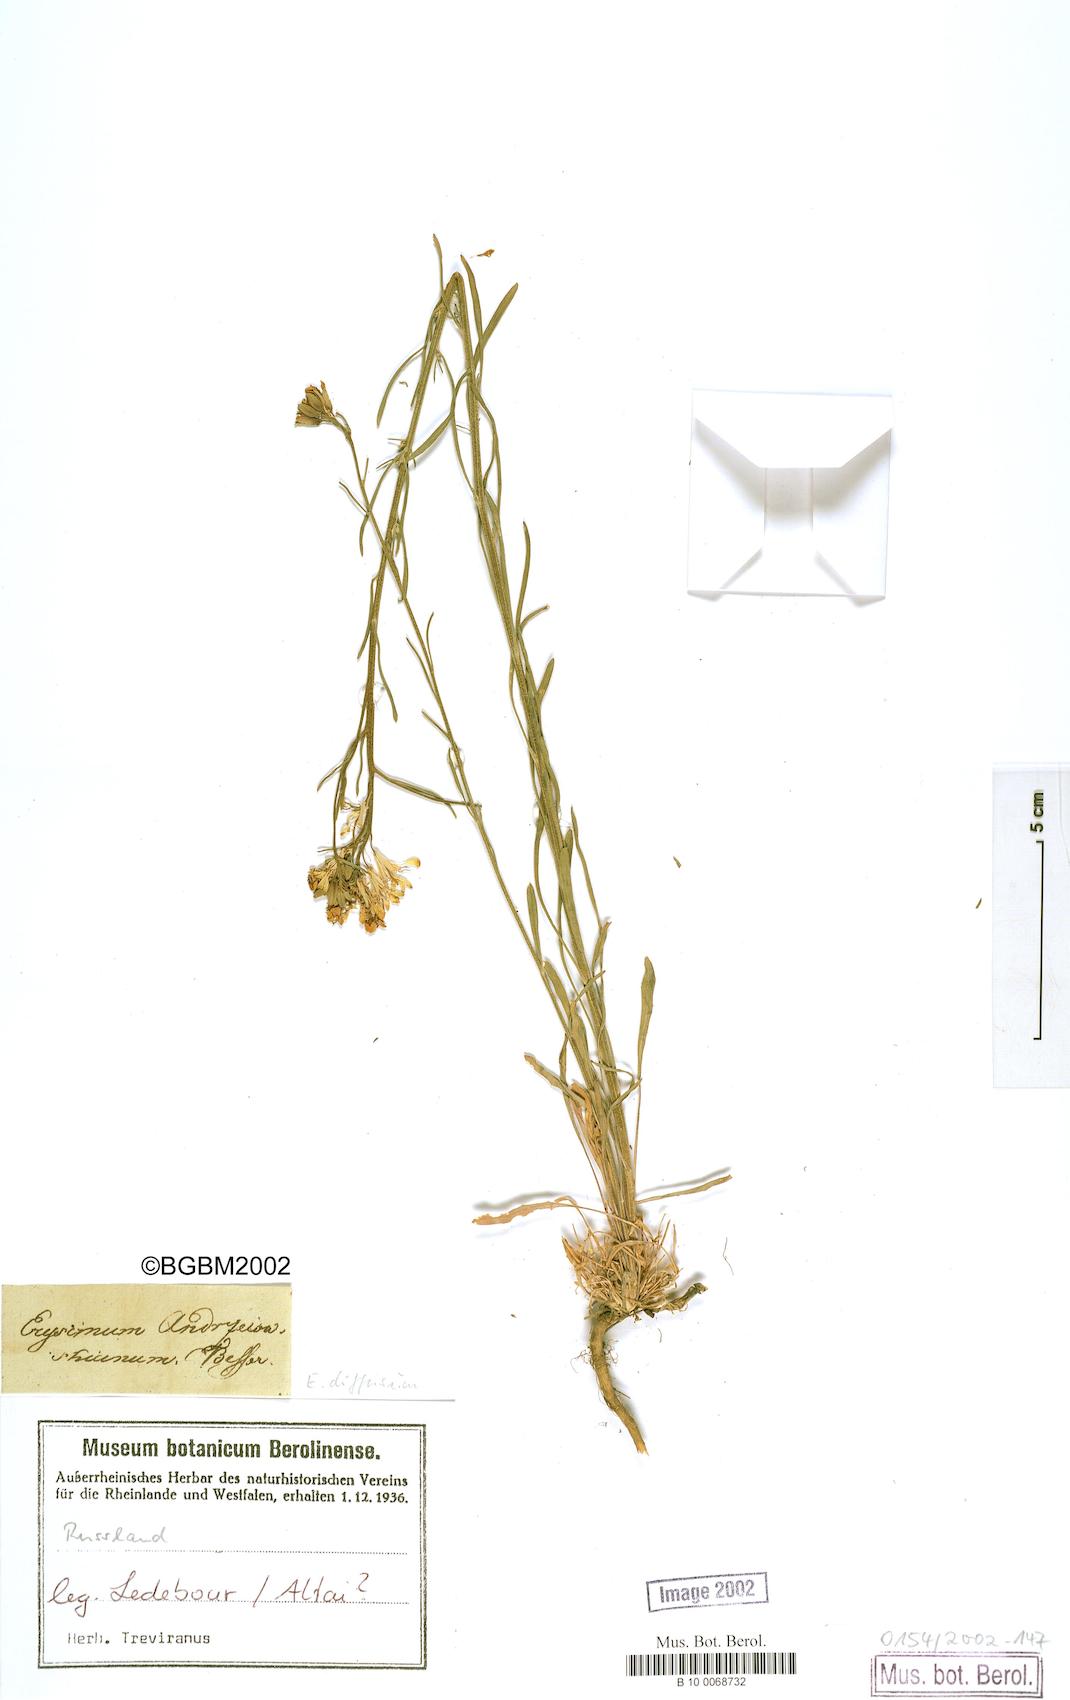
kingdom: Plantae
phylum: Tracheophyta
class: Magnoliopsida
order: Brassicales
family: Brassicaceae
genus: Erysimum
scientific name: Erysimum diffusum
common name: Diffuse wallflower
